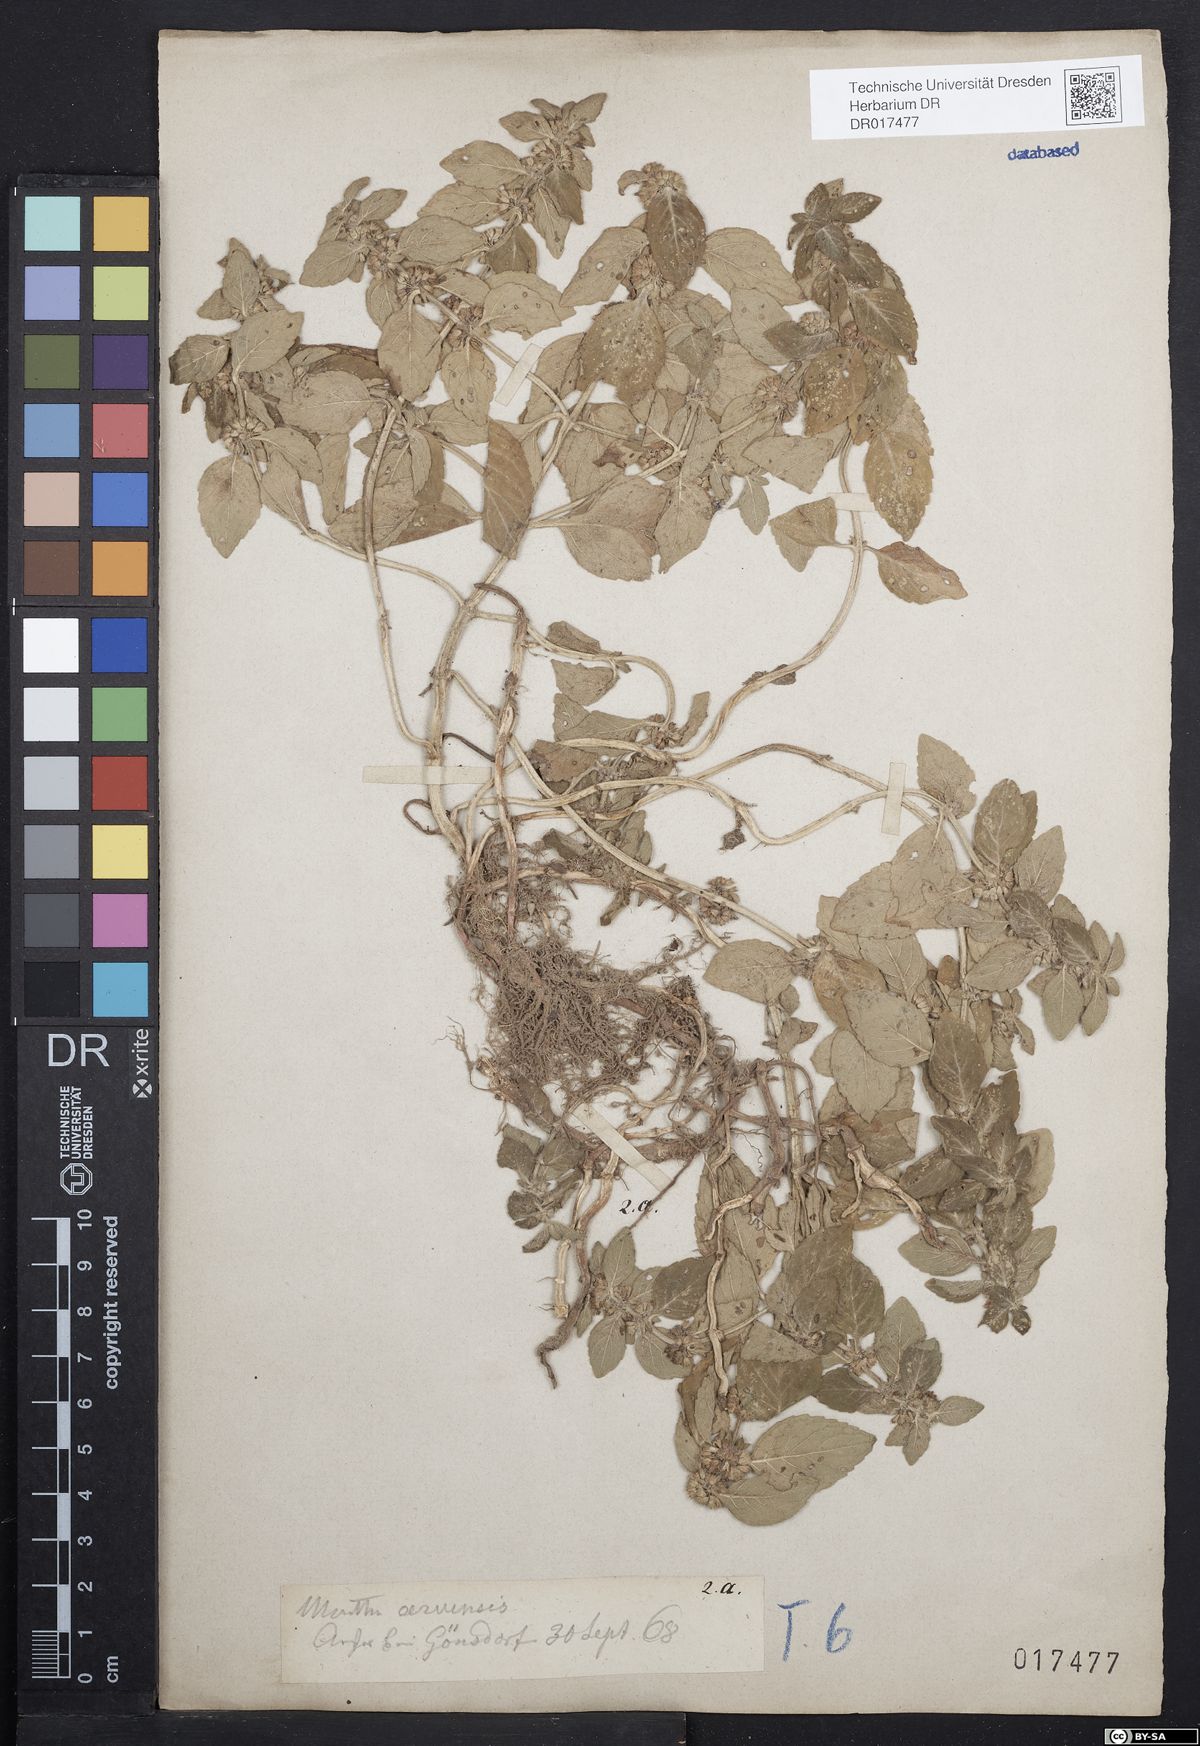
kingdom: Plantae
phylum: Tracheophyta
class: Magnoliopsida
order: Lamiales
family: Lamiaceae
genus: Mentha
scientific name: Mentha arvensis
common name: Corn mint
